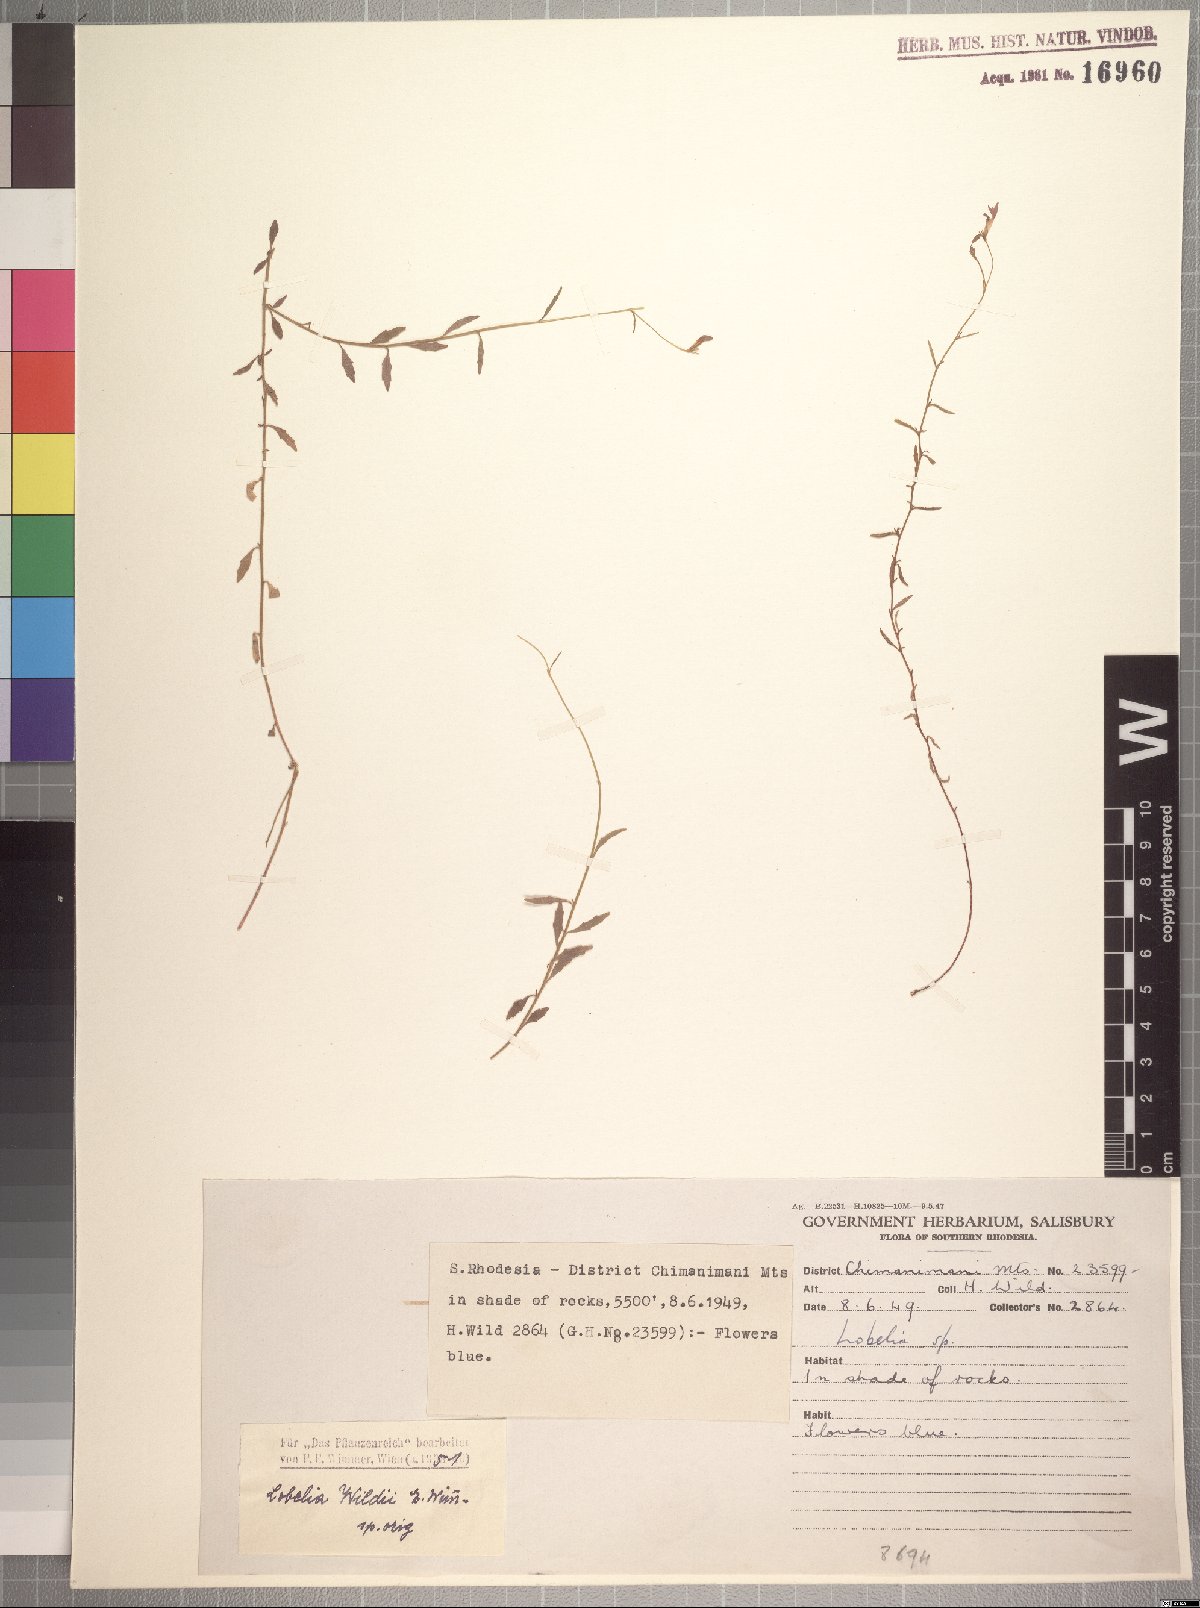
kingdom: Plantae
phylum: Tracheophyta
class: Magnoliopsida
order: Asterales
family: Campanulaceae
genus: Lobelia
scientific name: Lobelia erinus
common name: Edging lobelia
